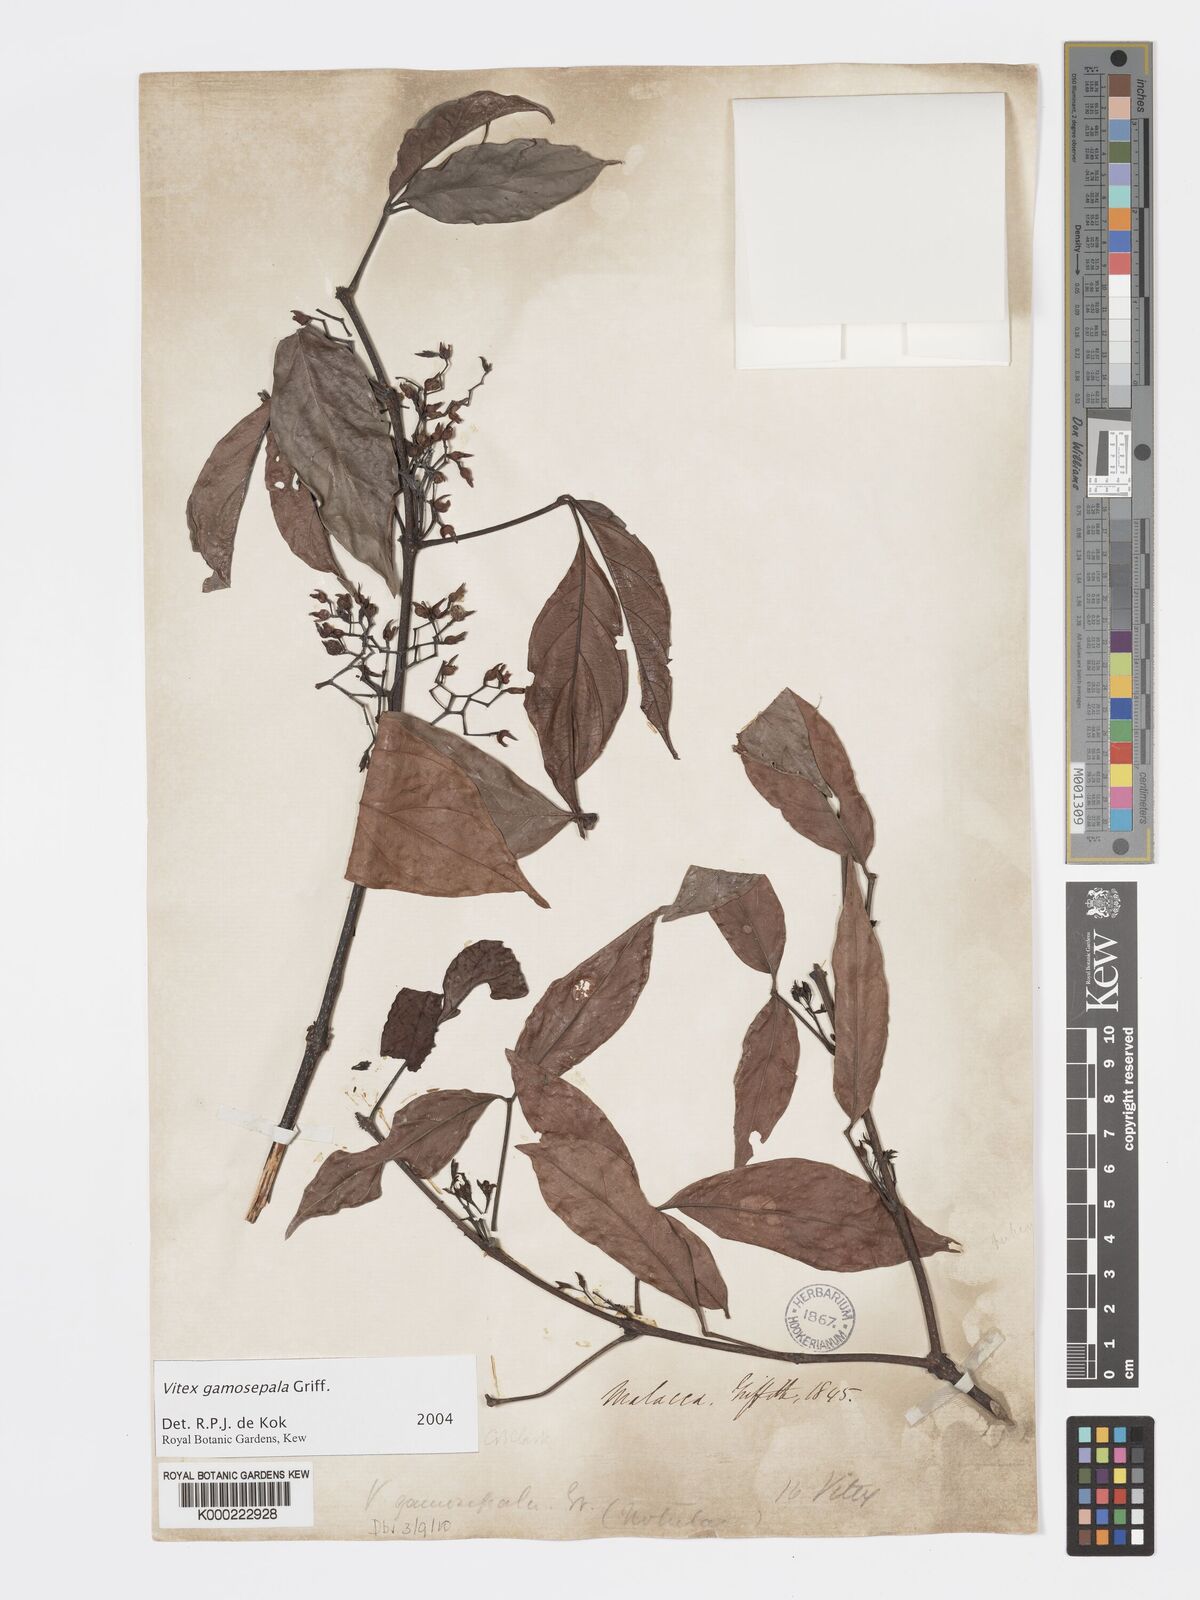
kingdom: Plantae
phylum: Tracheophyta
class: Magnoliopsida
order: Lamiales
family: Lamiaceae
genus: Vitex
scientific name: Vitex gamosepala
